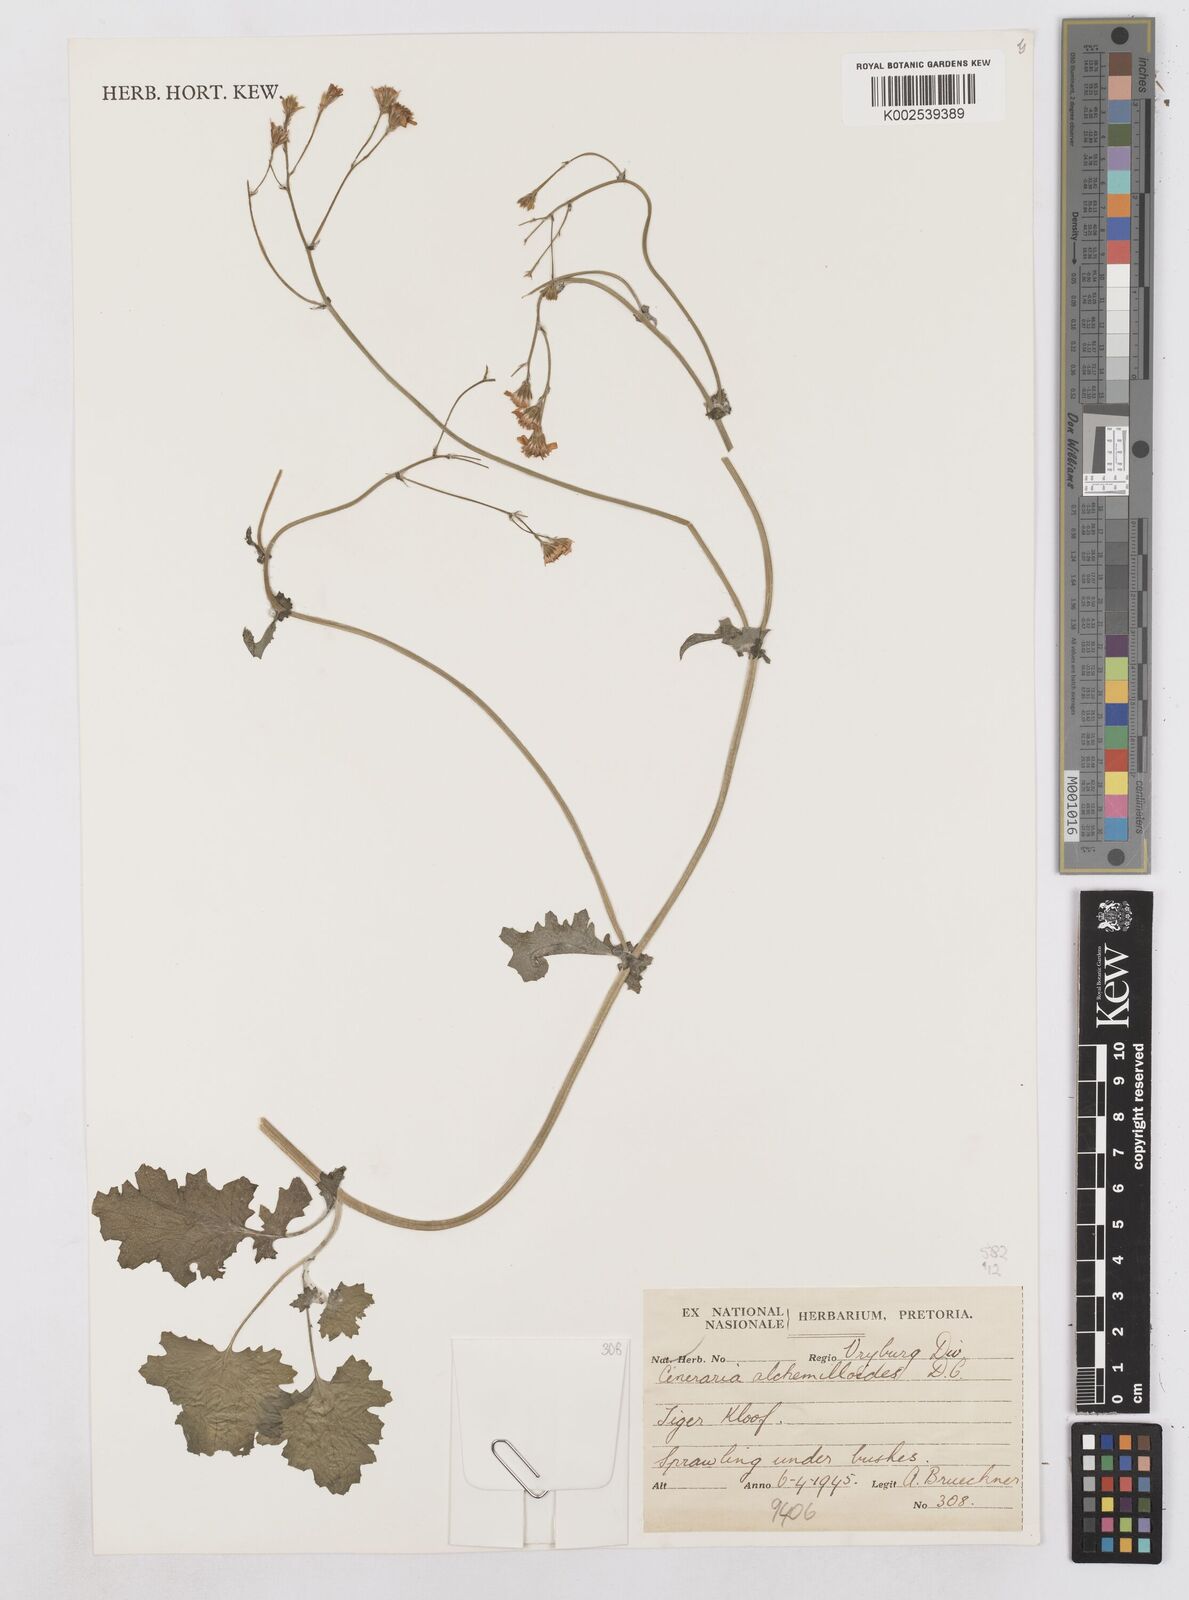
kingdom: Plantae
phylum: Tracheophyta
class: Magnoliopsida
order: Asterales
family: Asteraceae
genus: Cineraria
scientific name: Cineraria alchemilloides
